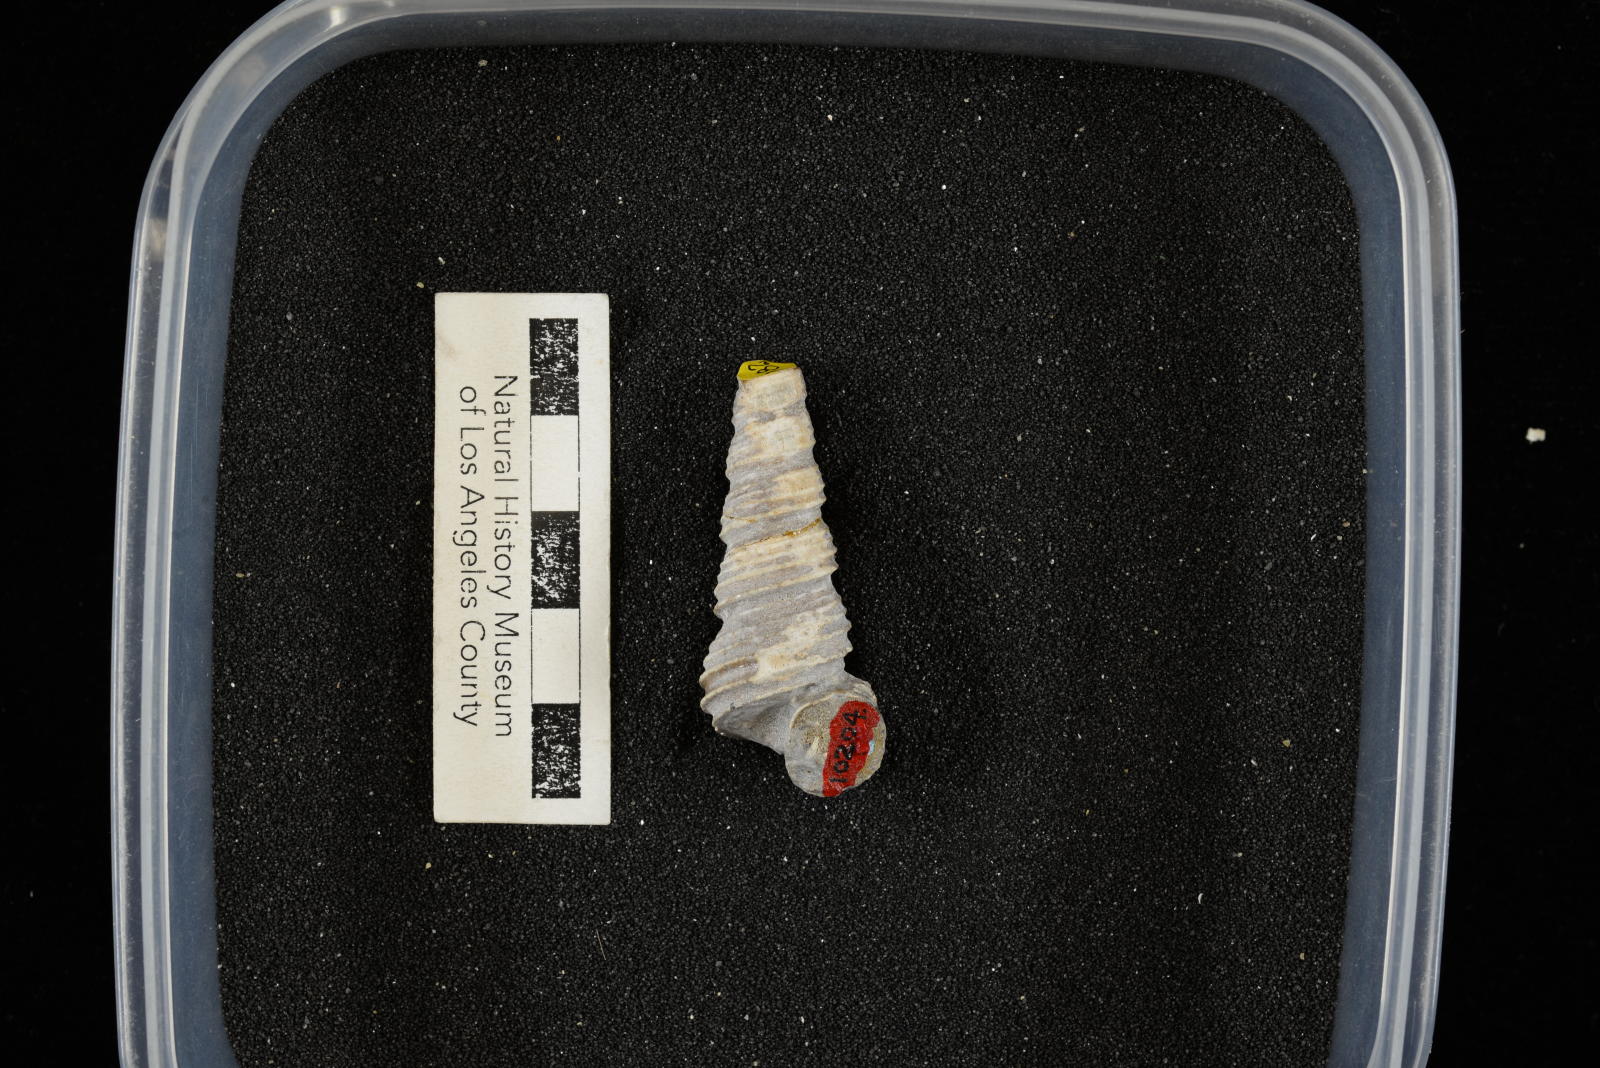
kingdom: Animalia
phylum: Mollusca
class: Gastropoda
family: Turritellidae
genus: Turritella
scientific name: Turritella chicoensis
